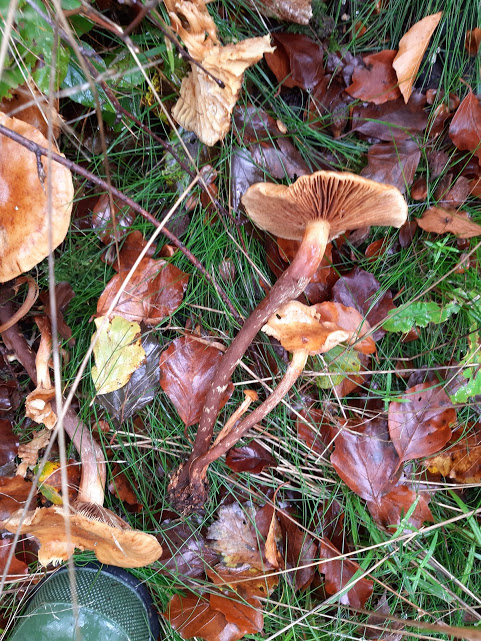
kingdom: Fungi
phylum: Basidiomycota
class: Agaricomycetes
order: Agaricales
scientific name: Agaricales
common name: champignonordenen
